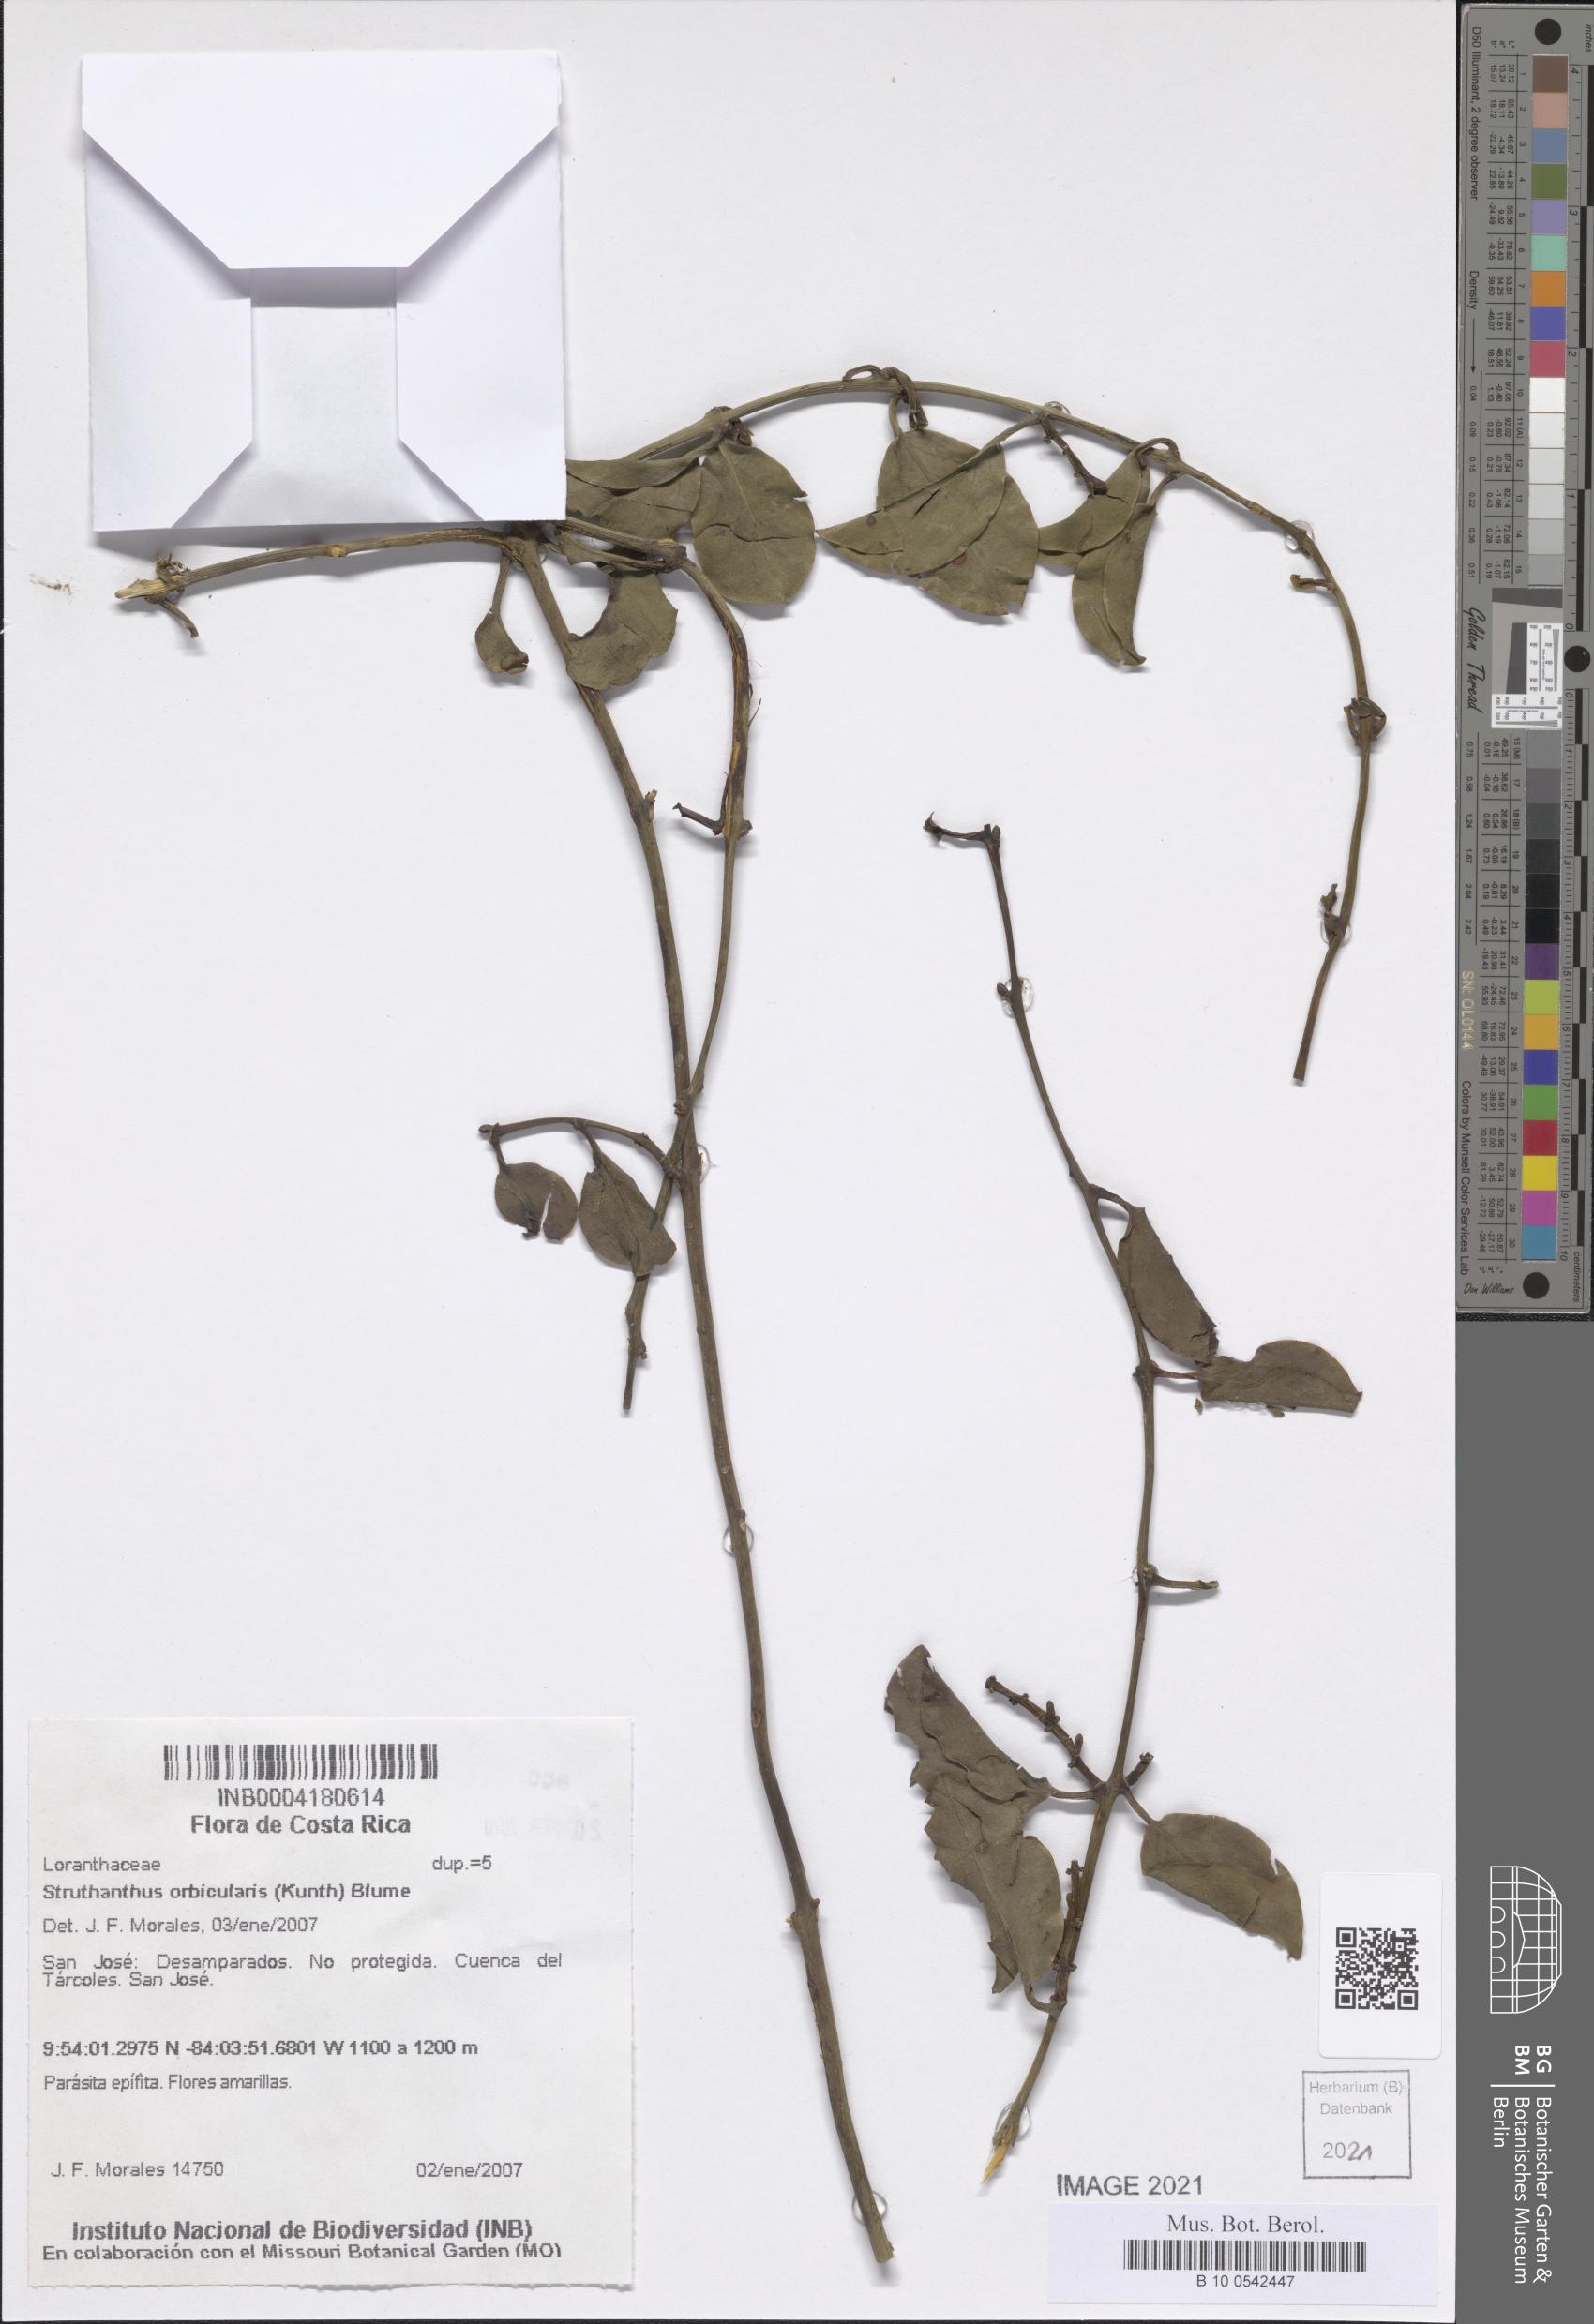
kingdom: Plantae
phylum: Tracheophyta
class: Magnoliopsida
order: Santalales
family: Loranthaceae
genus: Struthanthus
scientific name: Struthanthus orbicularis
